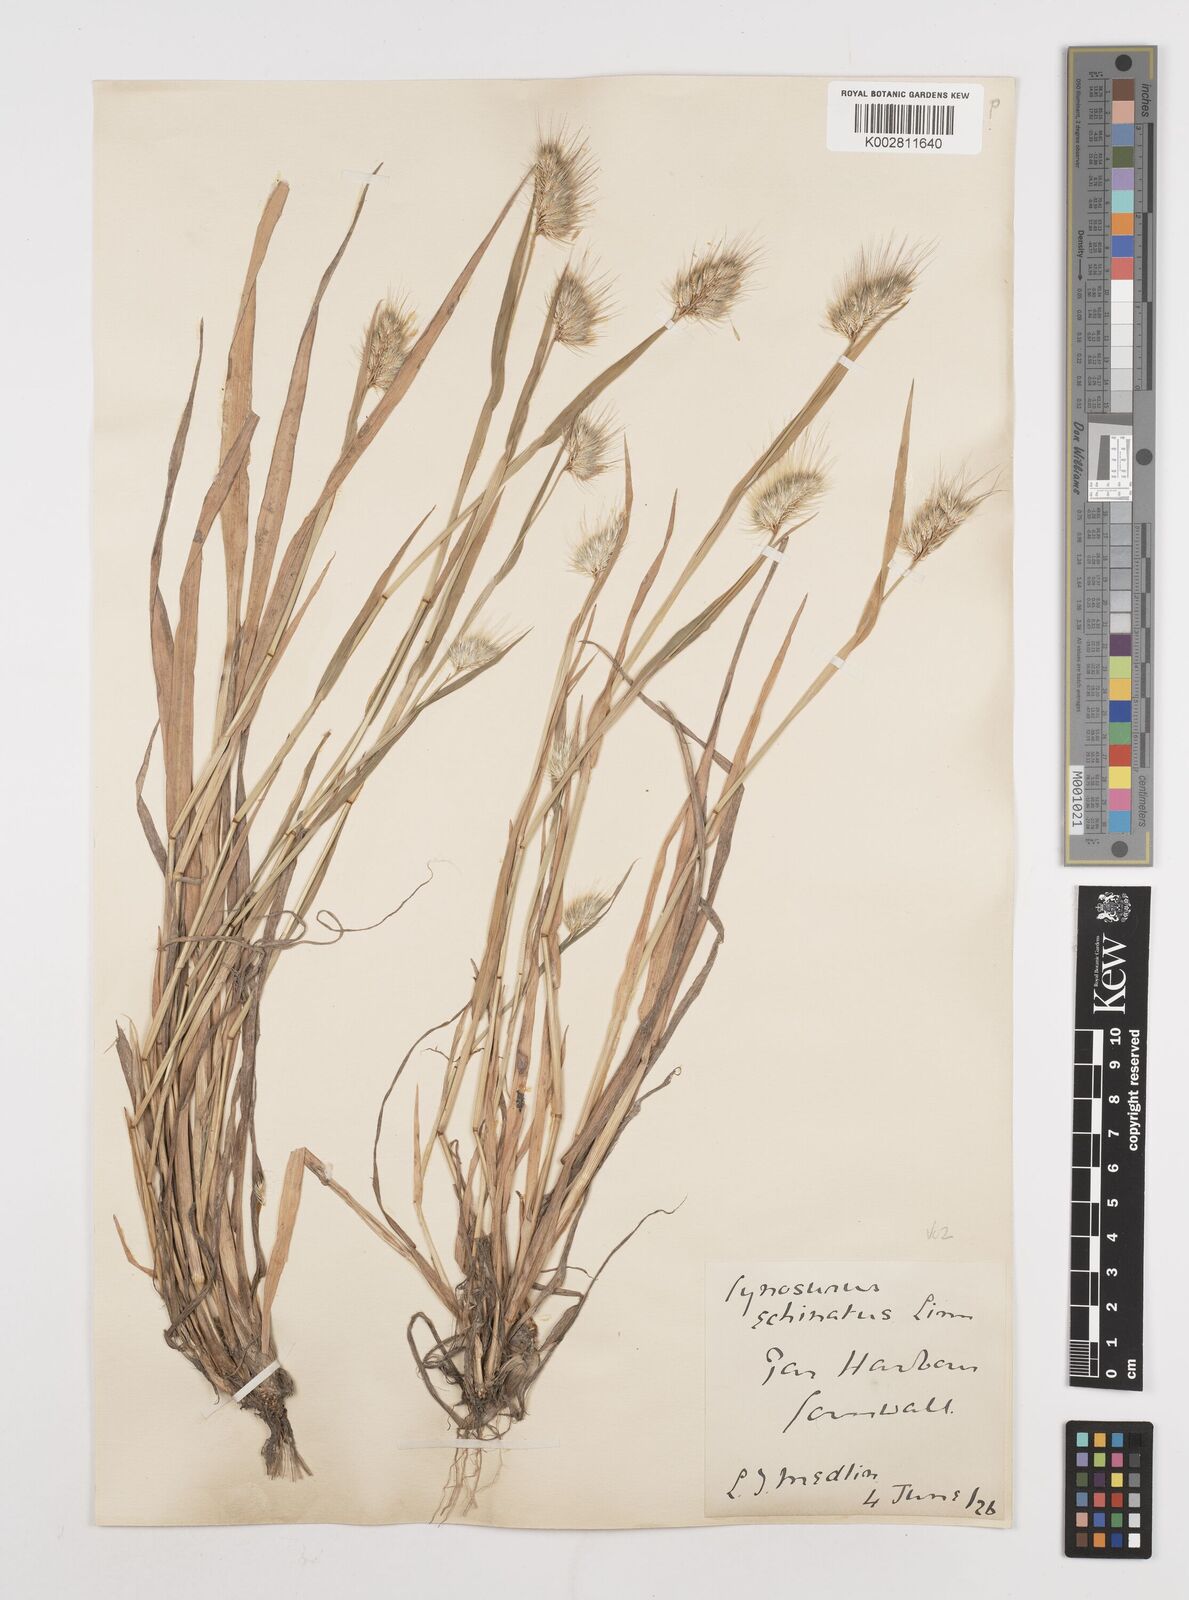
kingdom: Plantae
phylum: Tracheophyta
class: Liliopsida
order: Poales
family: Poaceae
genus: Cynosurus
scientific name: Cynosurus echinatus
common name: Rough dog's-tail
